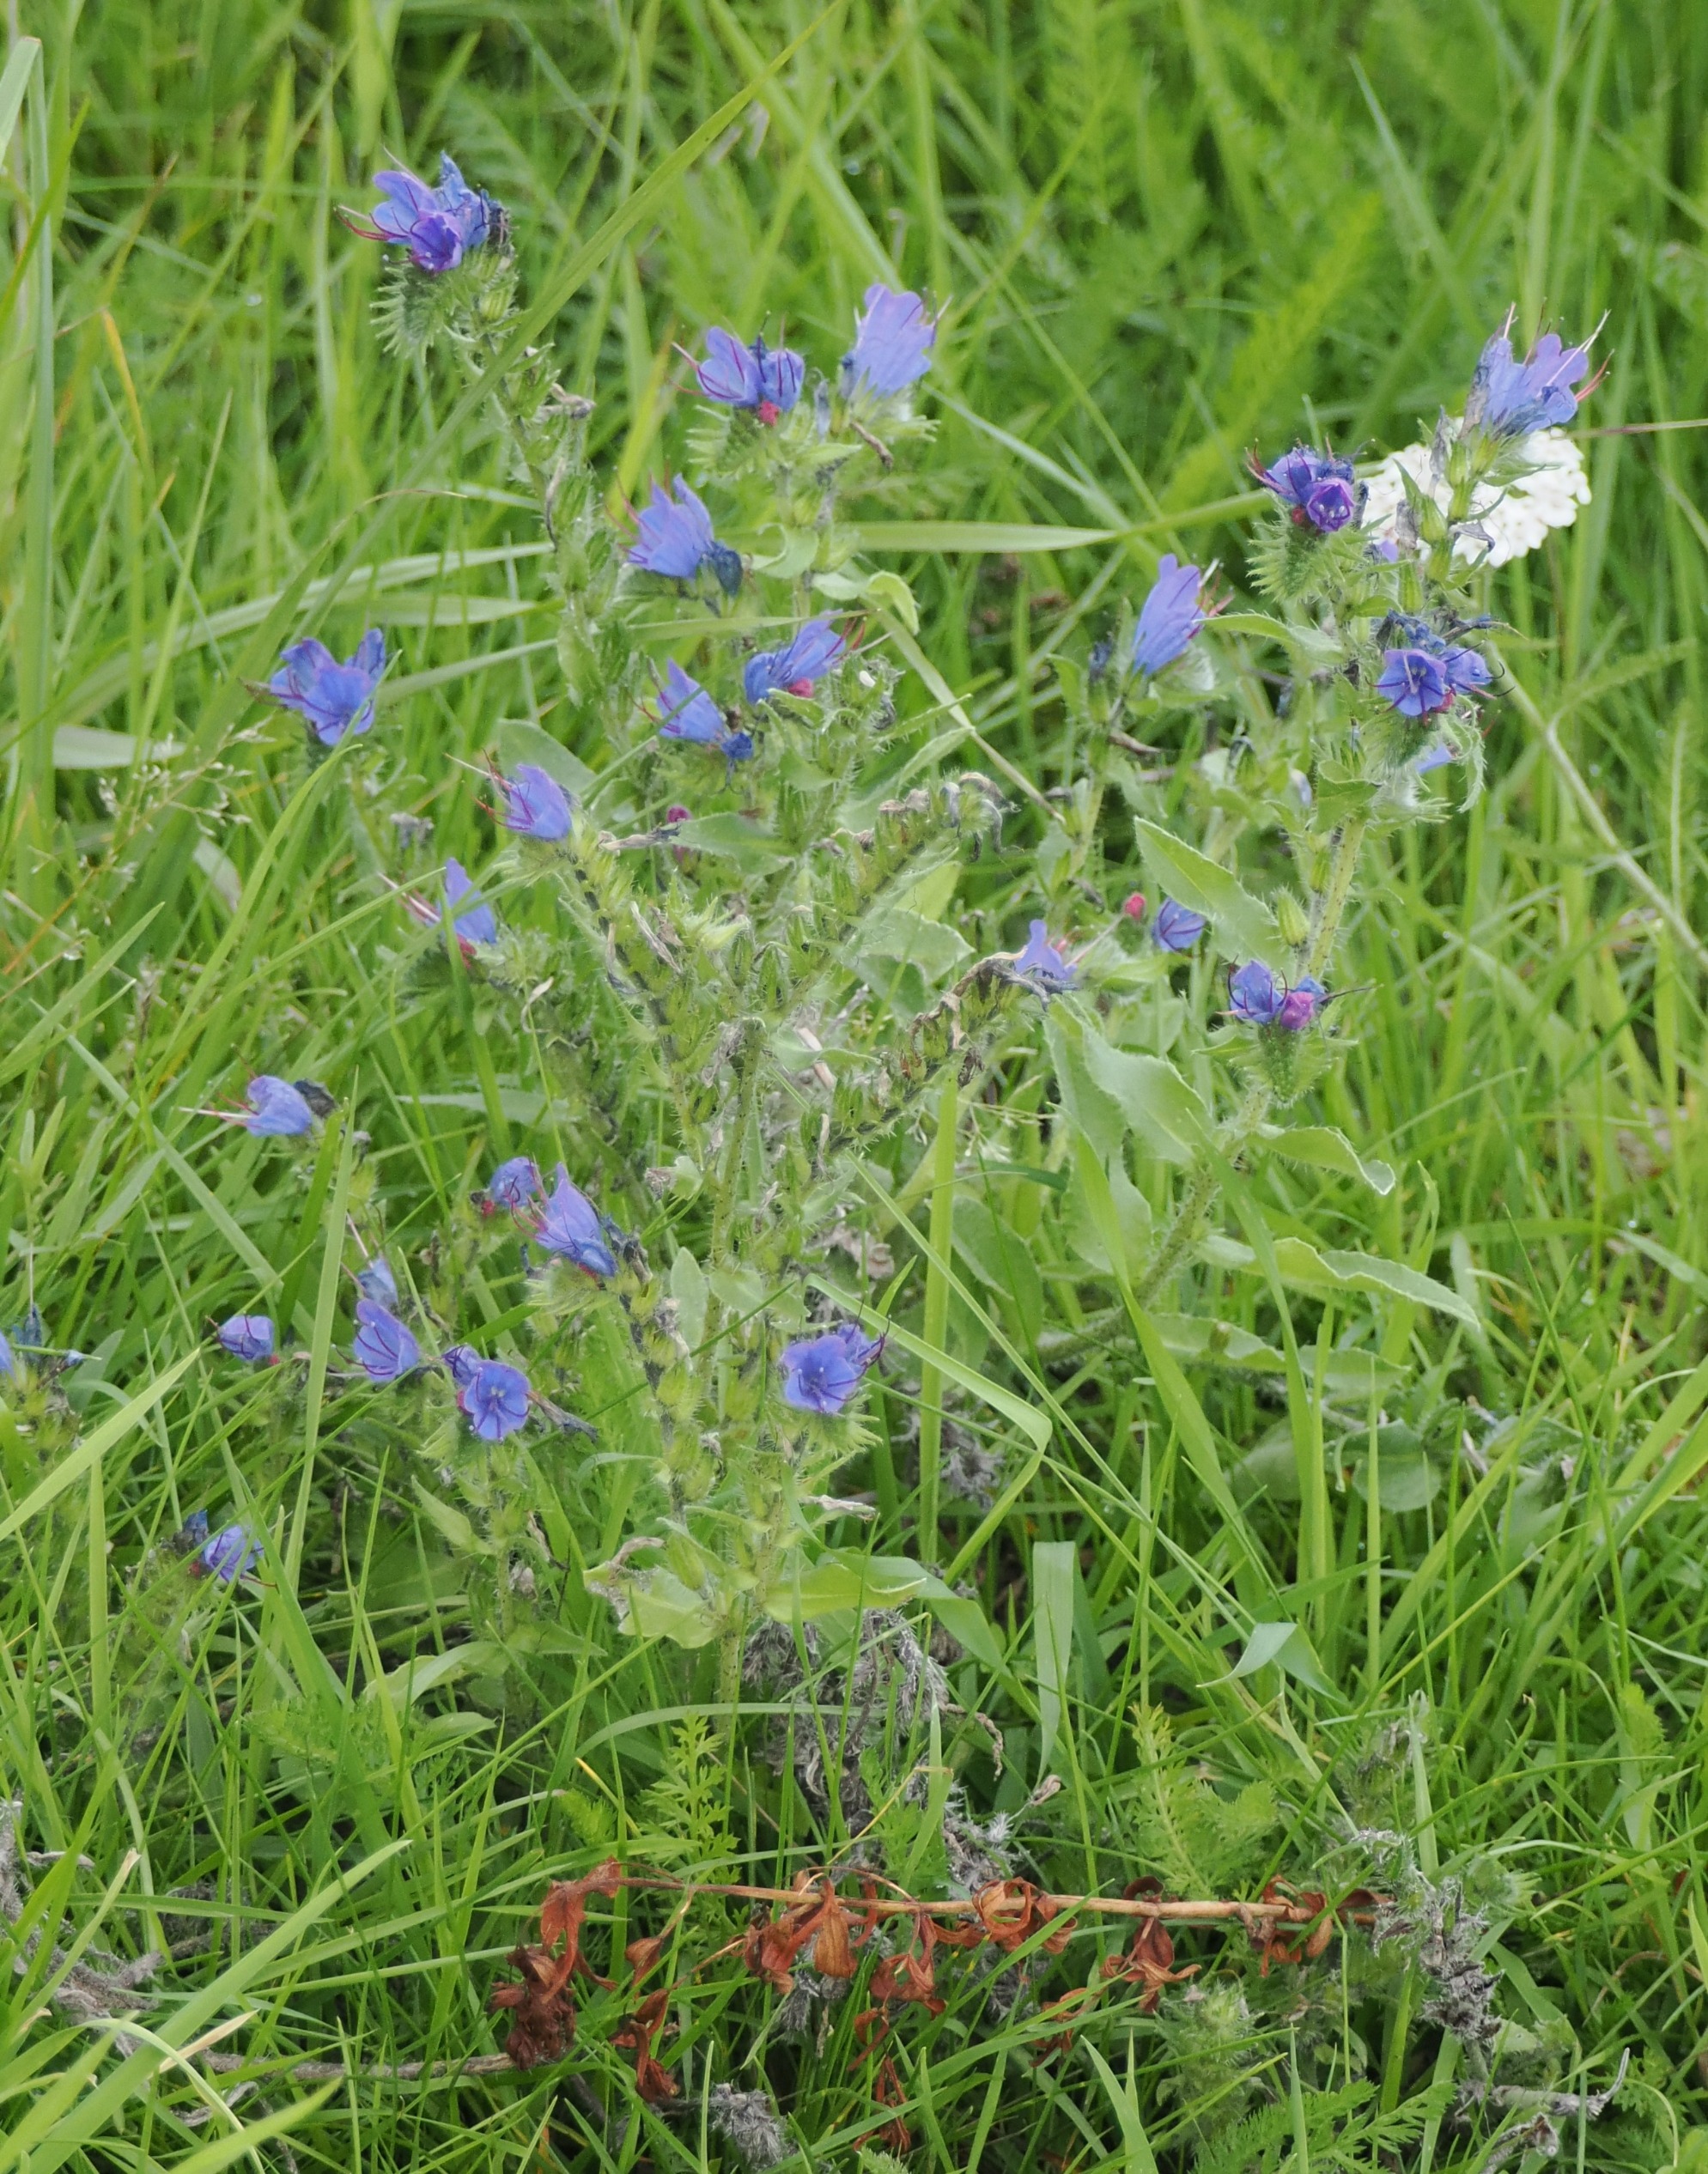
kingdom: Plantae
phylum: Tracheophyta
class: Magnoliopsida
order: Boraginales
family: Boraginaceae
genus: Echium
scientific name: Echium vulgare
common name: Slangehoved
